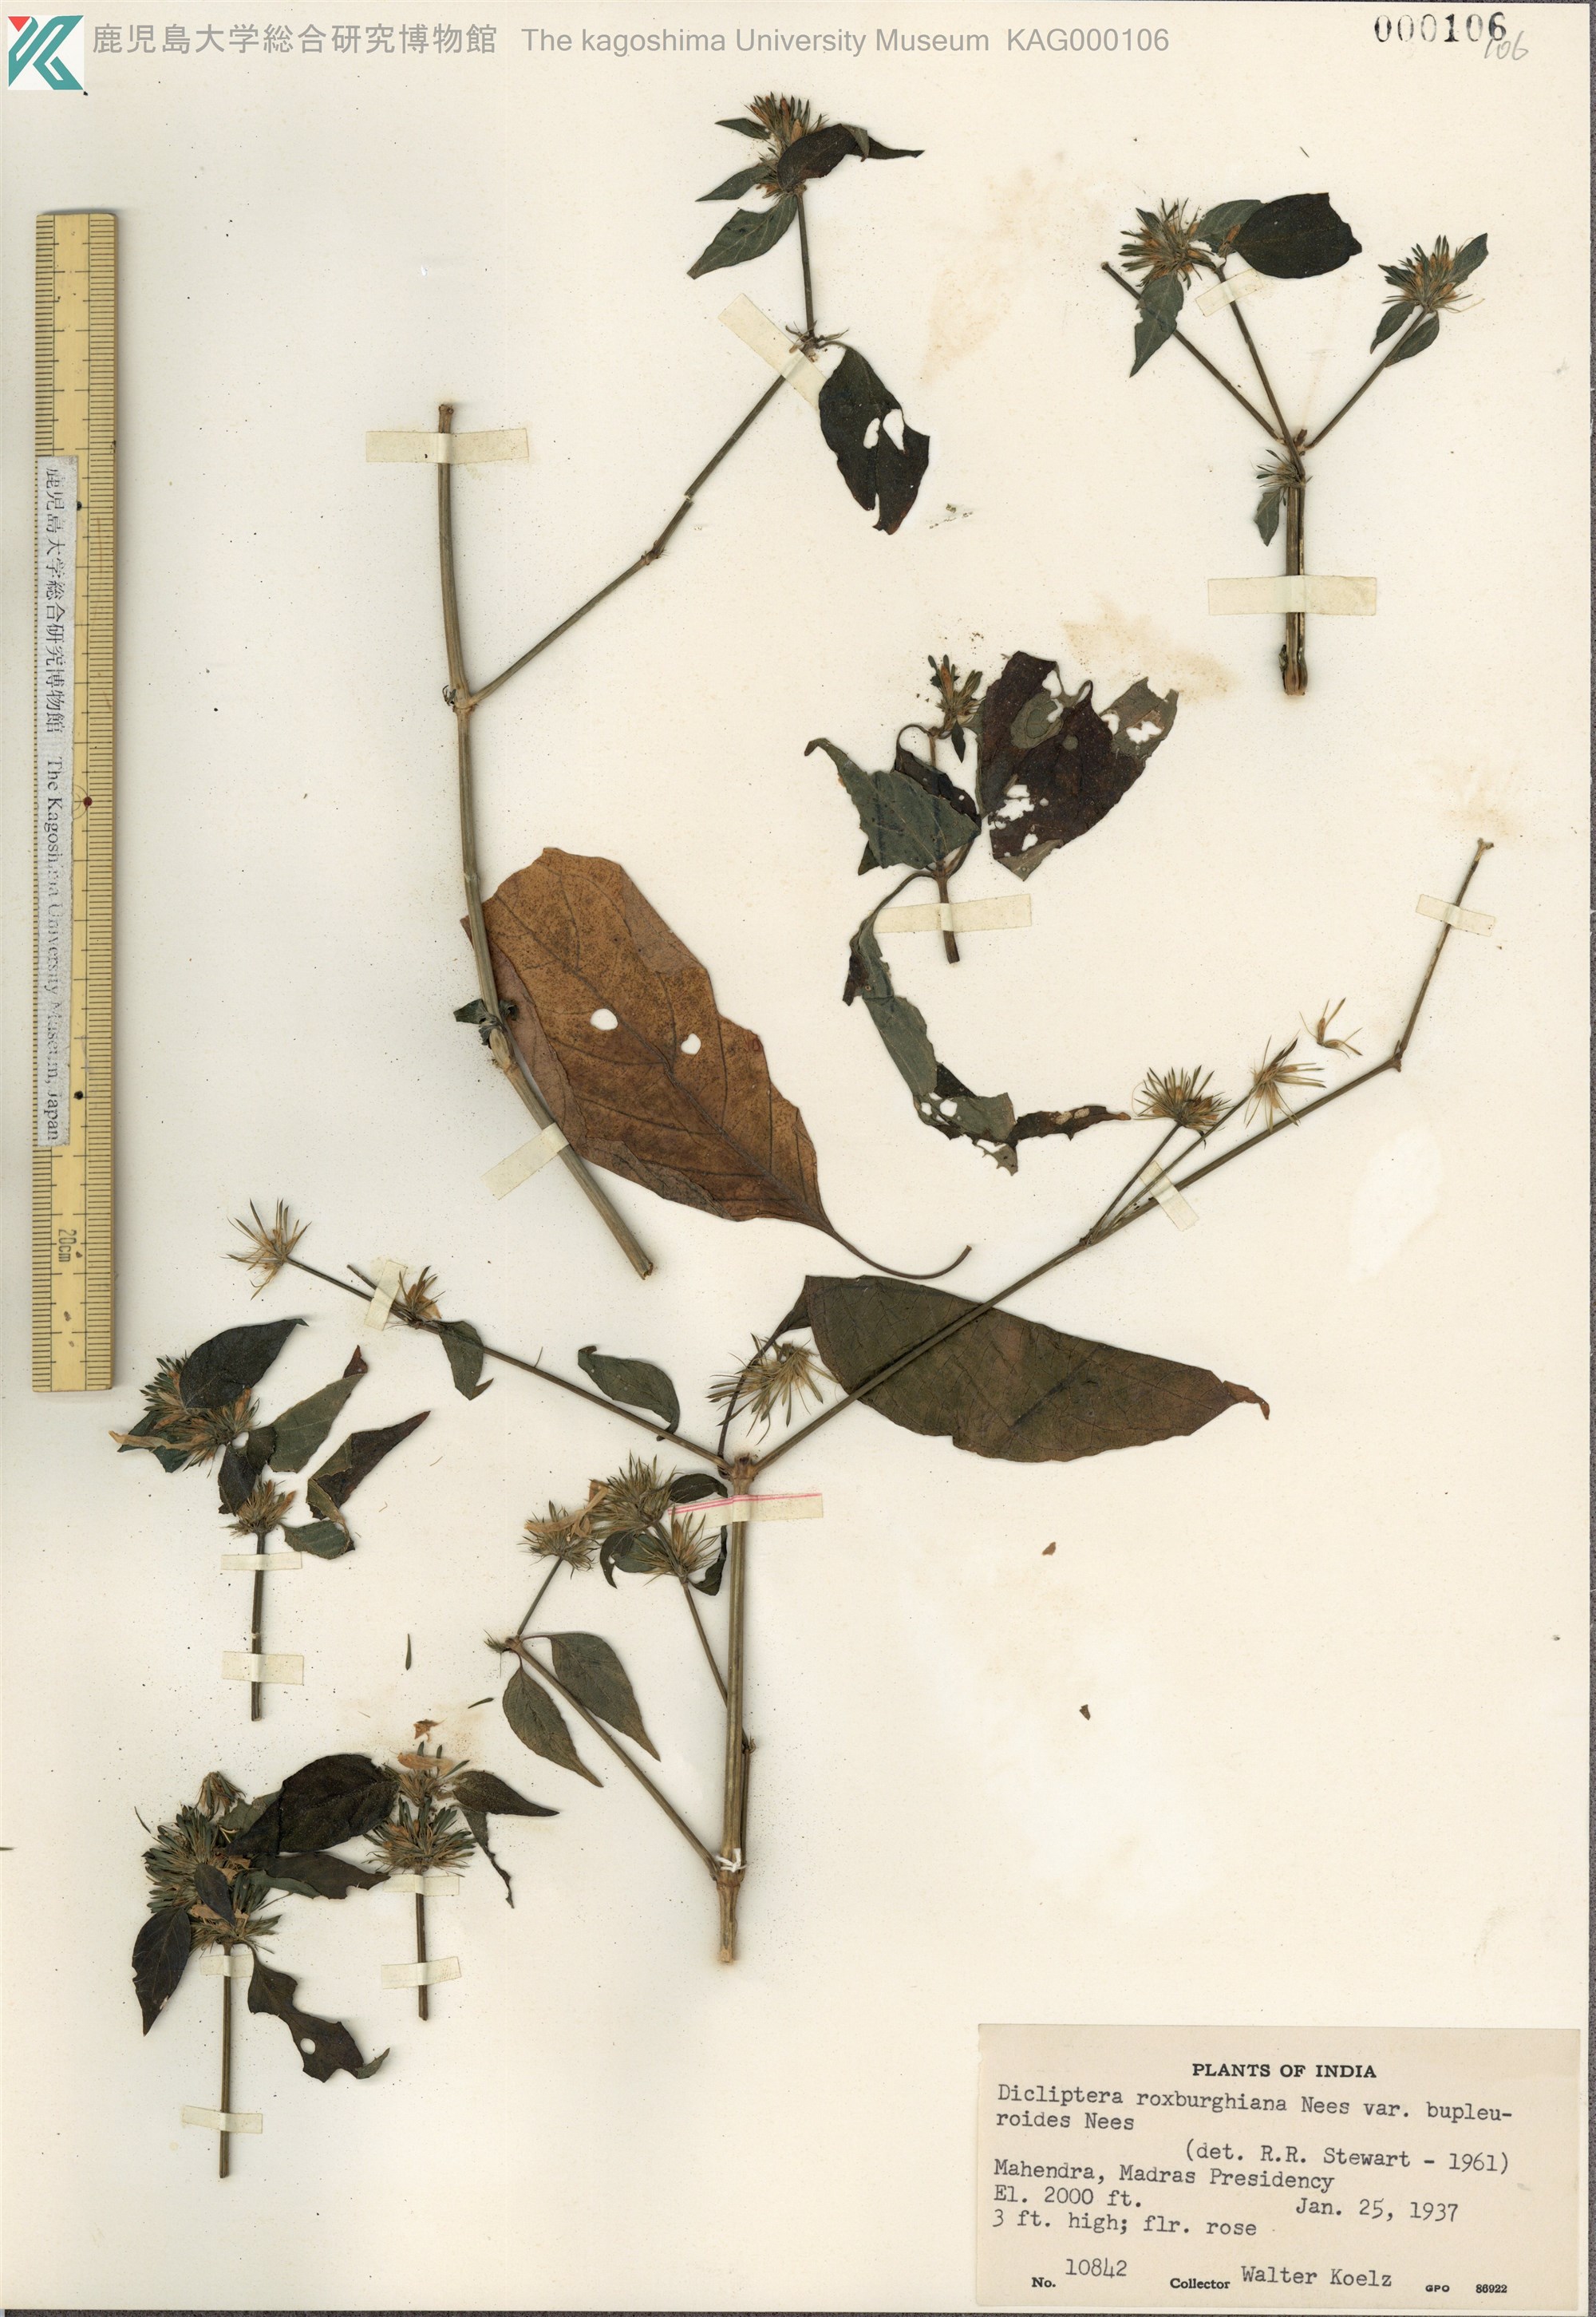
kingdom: Plantae
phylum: Tracheophyta
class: Magnoliopsida
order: Lamiales
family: Acanthaceae
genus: Dicliptera
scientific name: Dicliptera bupleuroides
